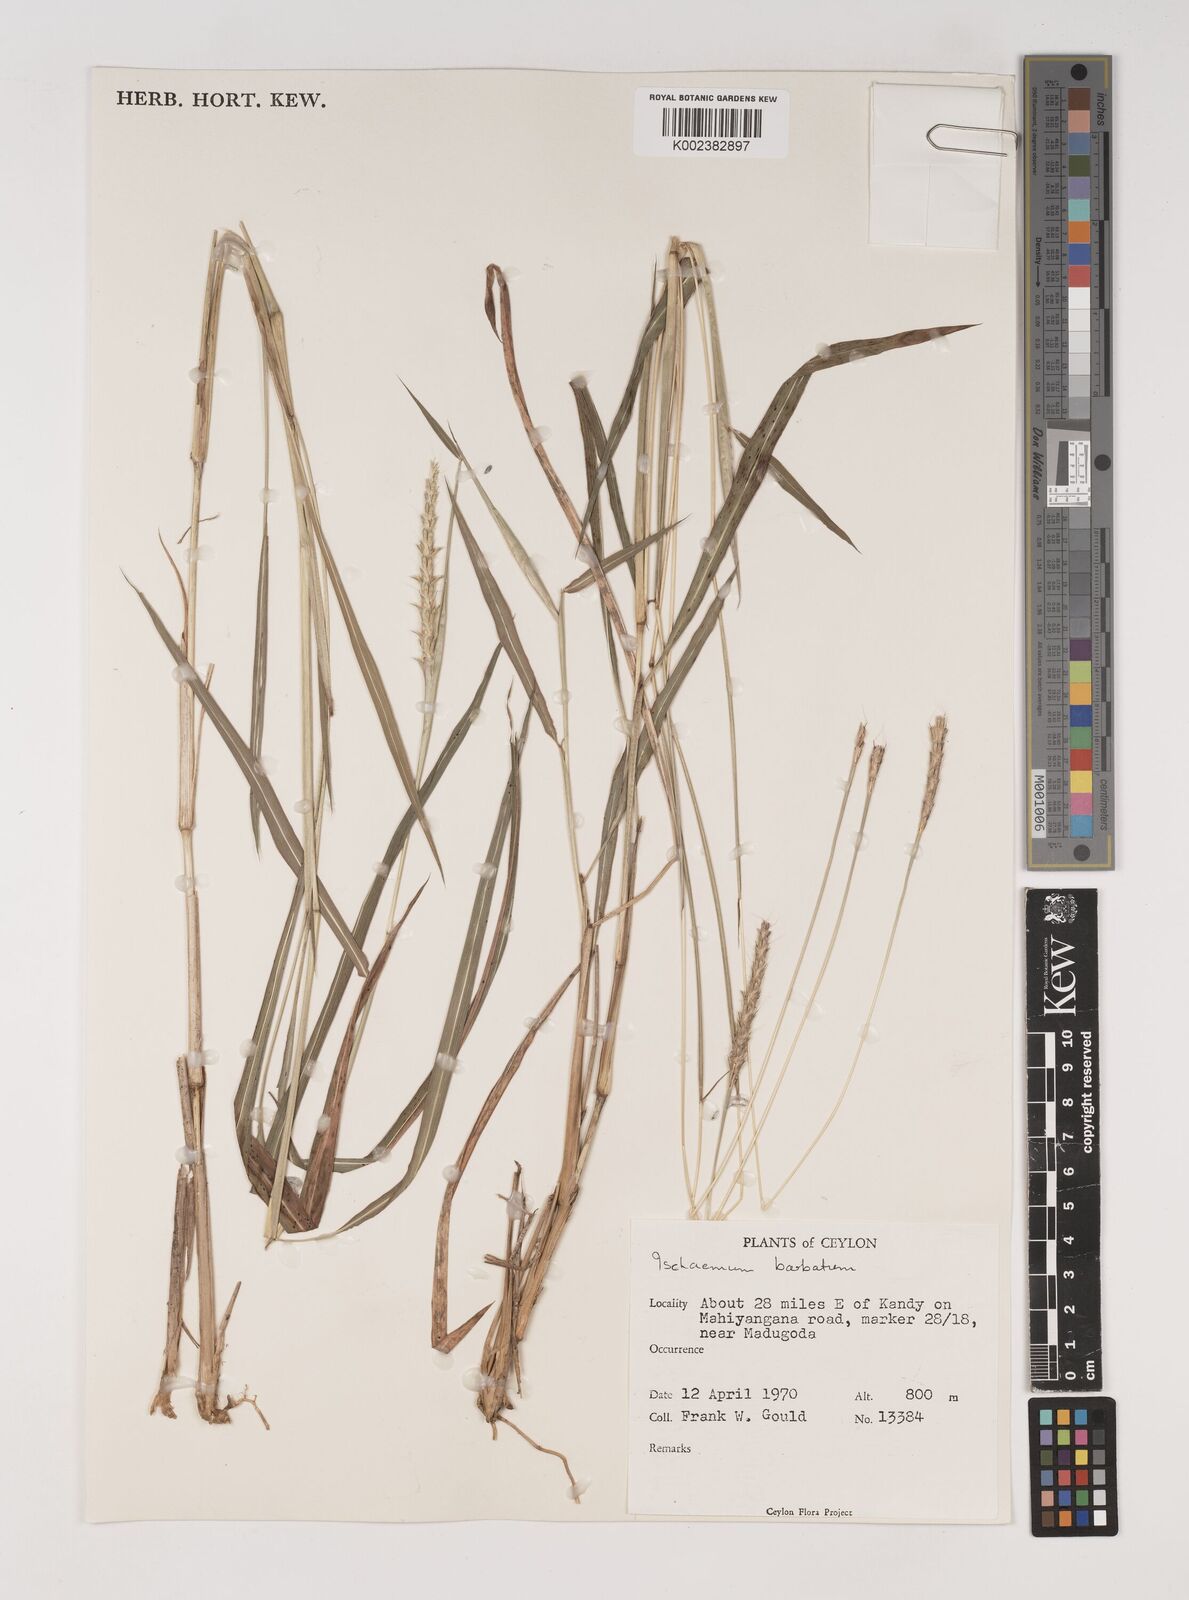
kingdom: Plantae
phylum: Tracheophyta
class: Liliopsida
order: Poales
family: Poaceae
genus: Ischaemum
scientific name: Ischaemum
